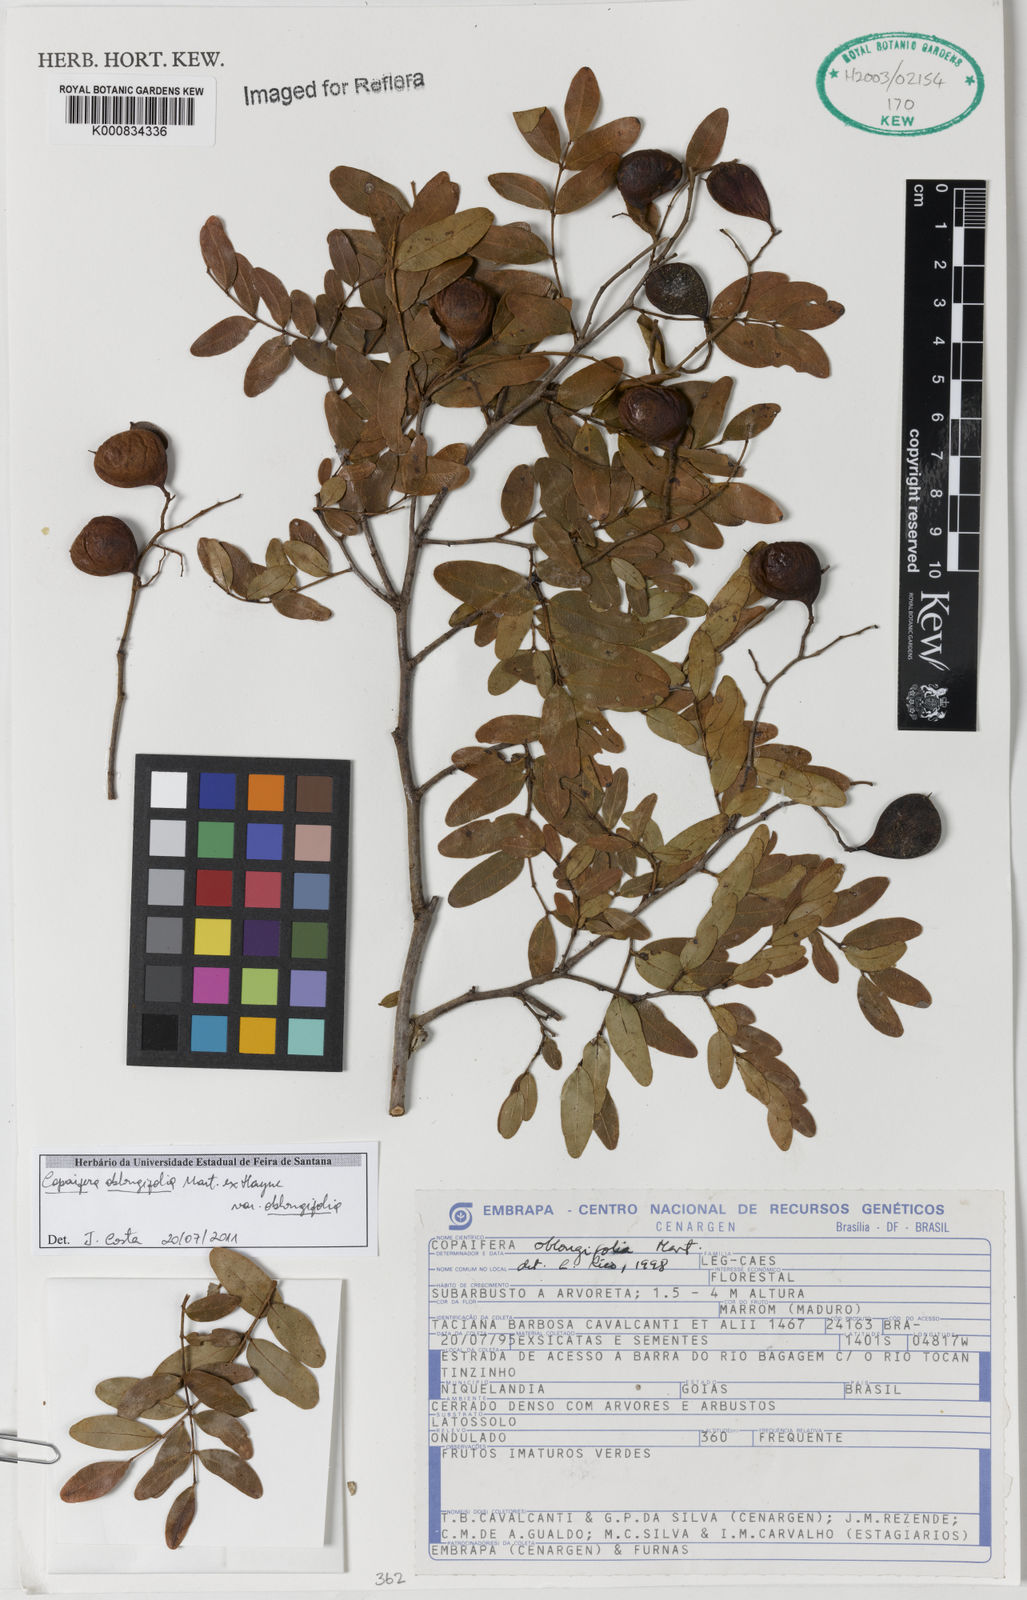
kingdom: Plantae
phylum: Tracheophyta
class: Magnoliopsida
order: Fabales
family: Fabaceae
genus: Copaifera
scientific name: Copaifera oblongifolia
